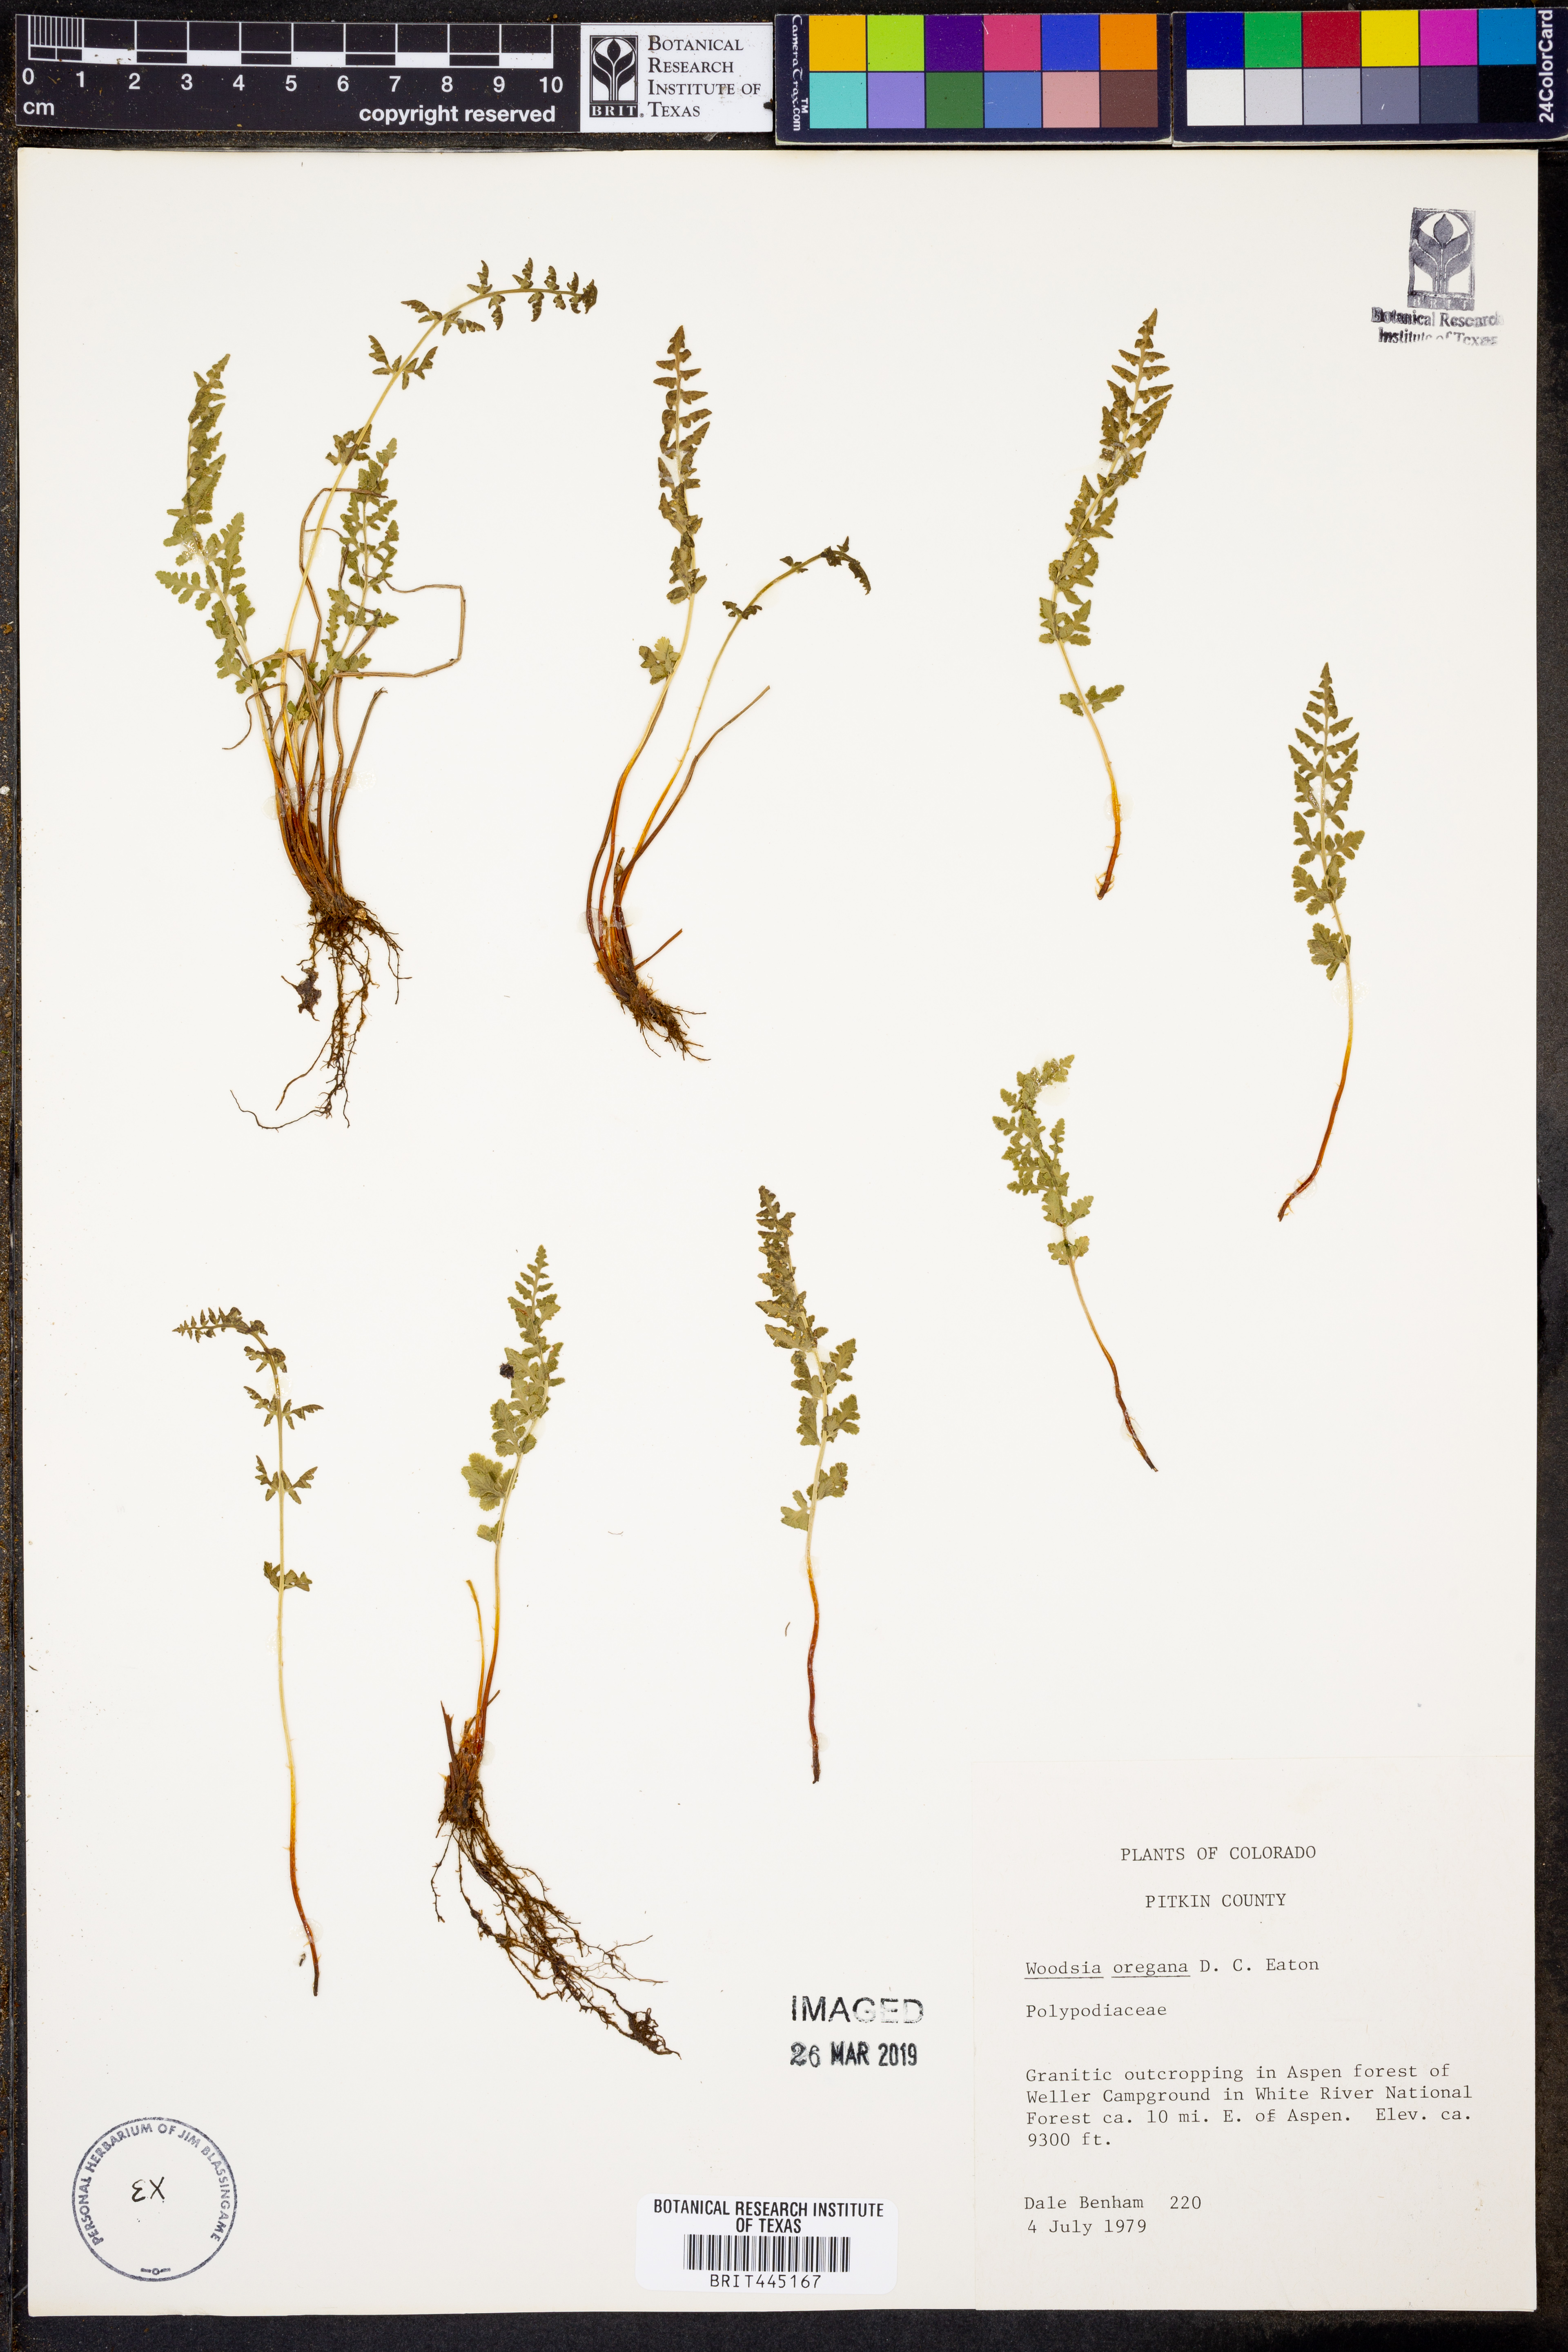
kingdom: Plantae
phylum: Tracheophyta
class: Polypodiopsida
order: Polypodiales
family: Woodsiaceae
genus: Physematium
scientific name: Physematium oreganum
